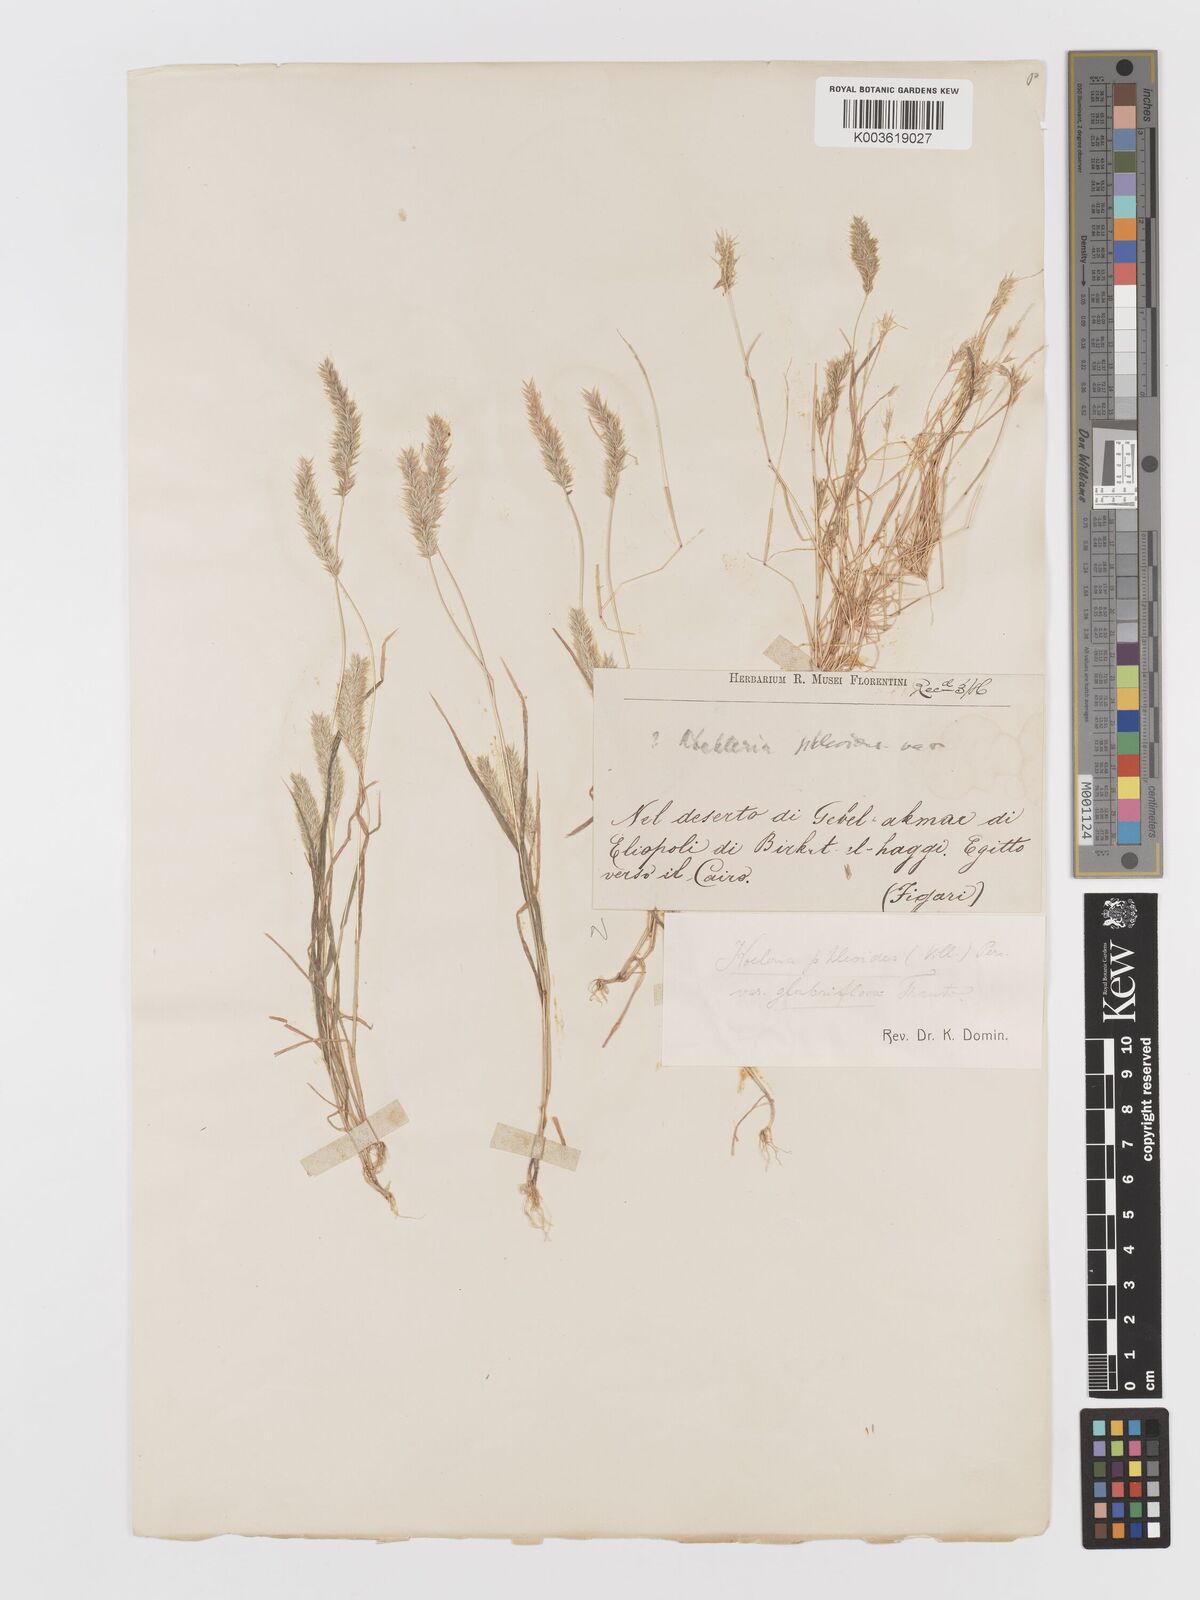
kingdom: Plantae
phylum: Tracheophyta
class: Liliopsida
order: Poales
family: Poaceae
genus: Rostraria
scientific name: Rostraria cristata
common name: Mediterranean hair-grass
